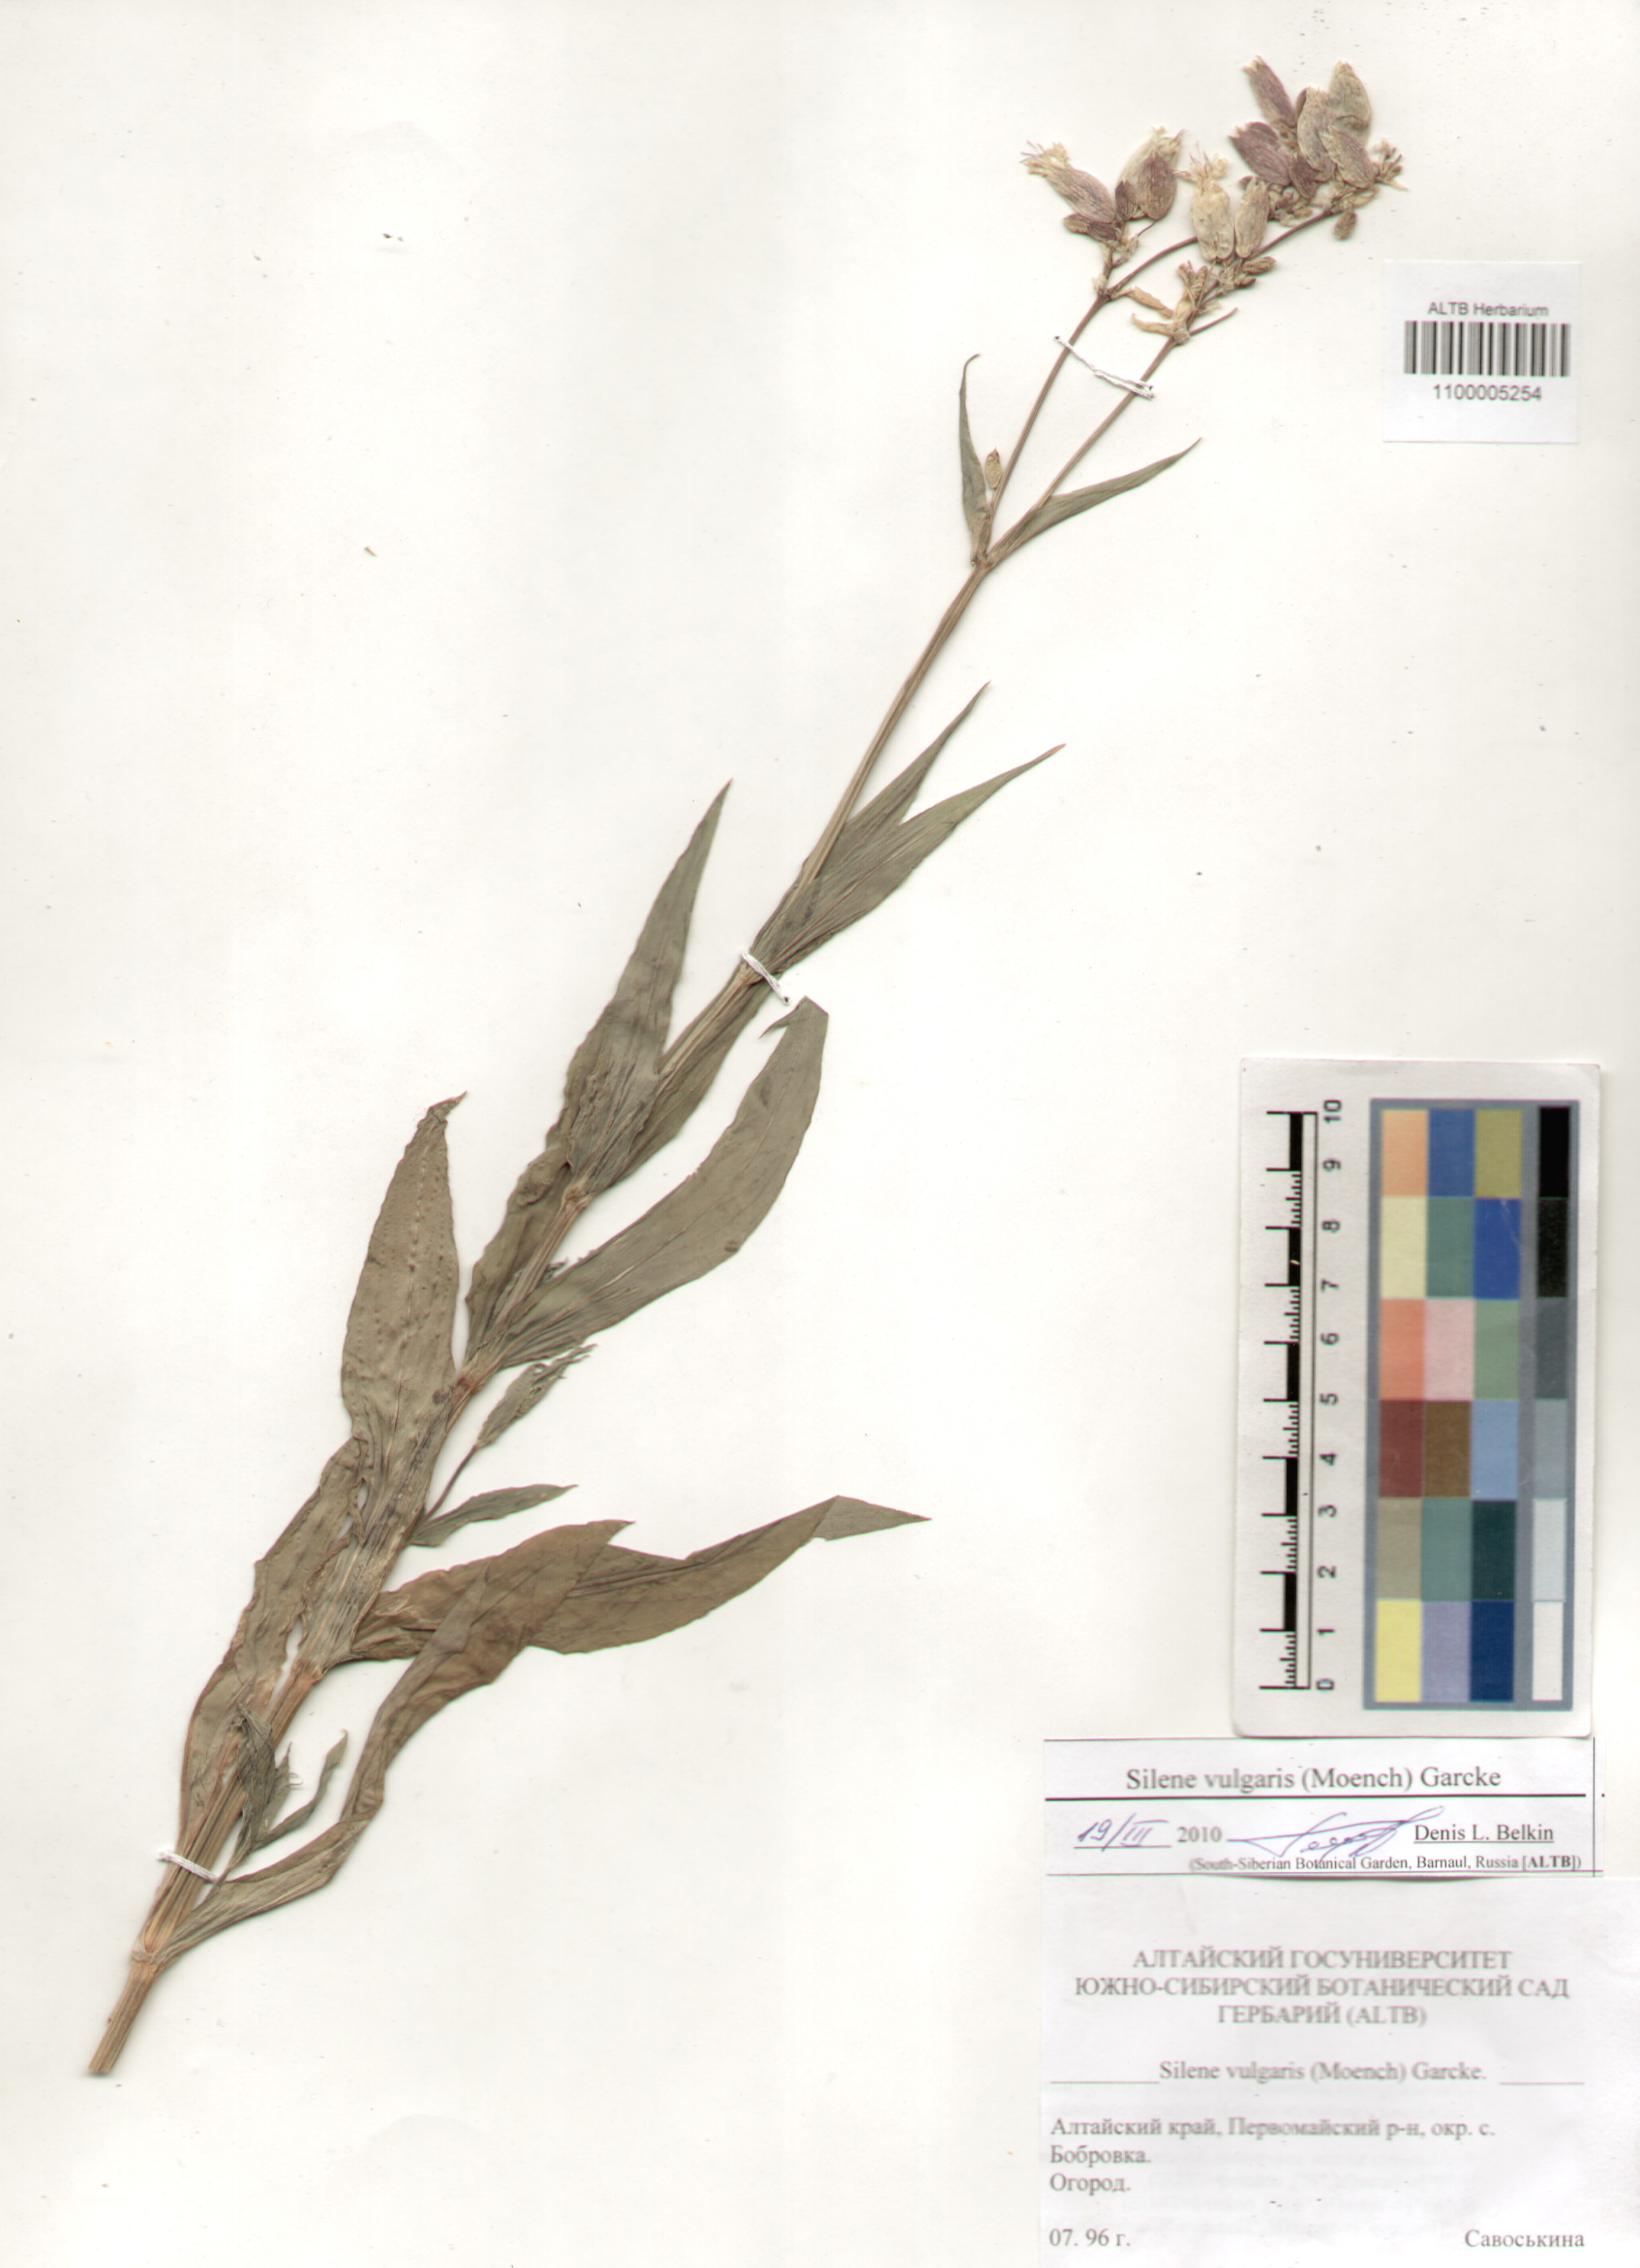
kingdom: Plantae
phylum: Tracheophyta
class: Magnoliopsida
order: Caryophyllales
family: Caryophyllaceae
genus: Silene
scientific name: Silene vulgaris
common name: Bladder campion
